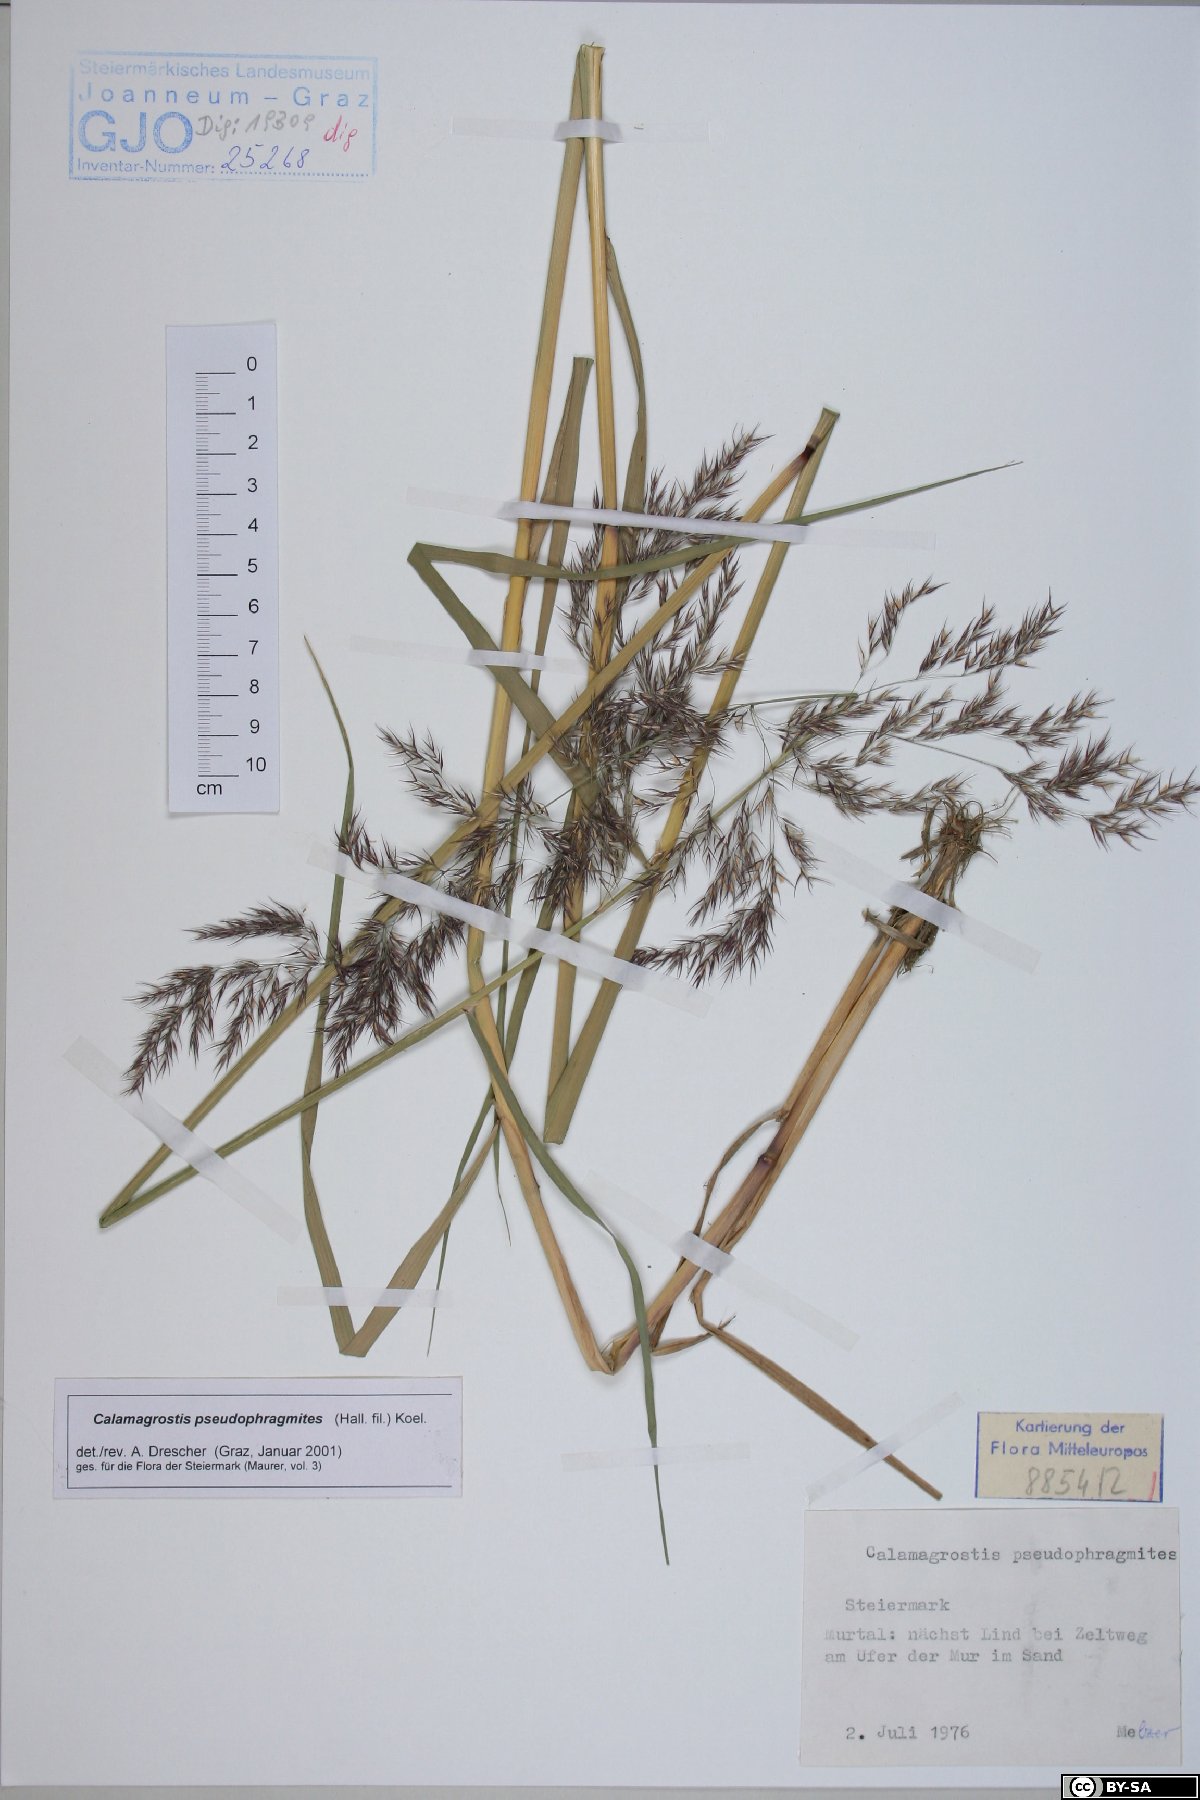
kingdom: Plantae
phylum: Tracheophyta
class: Liliopsida
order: Poales
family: Poaceae
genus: Calamagrostis
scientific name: Calamagrostis pseudophragmites
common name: Coastal small-reed
